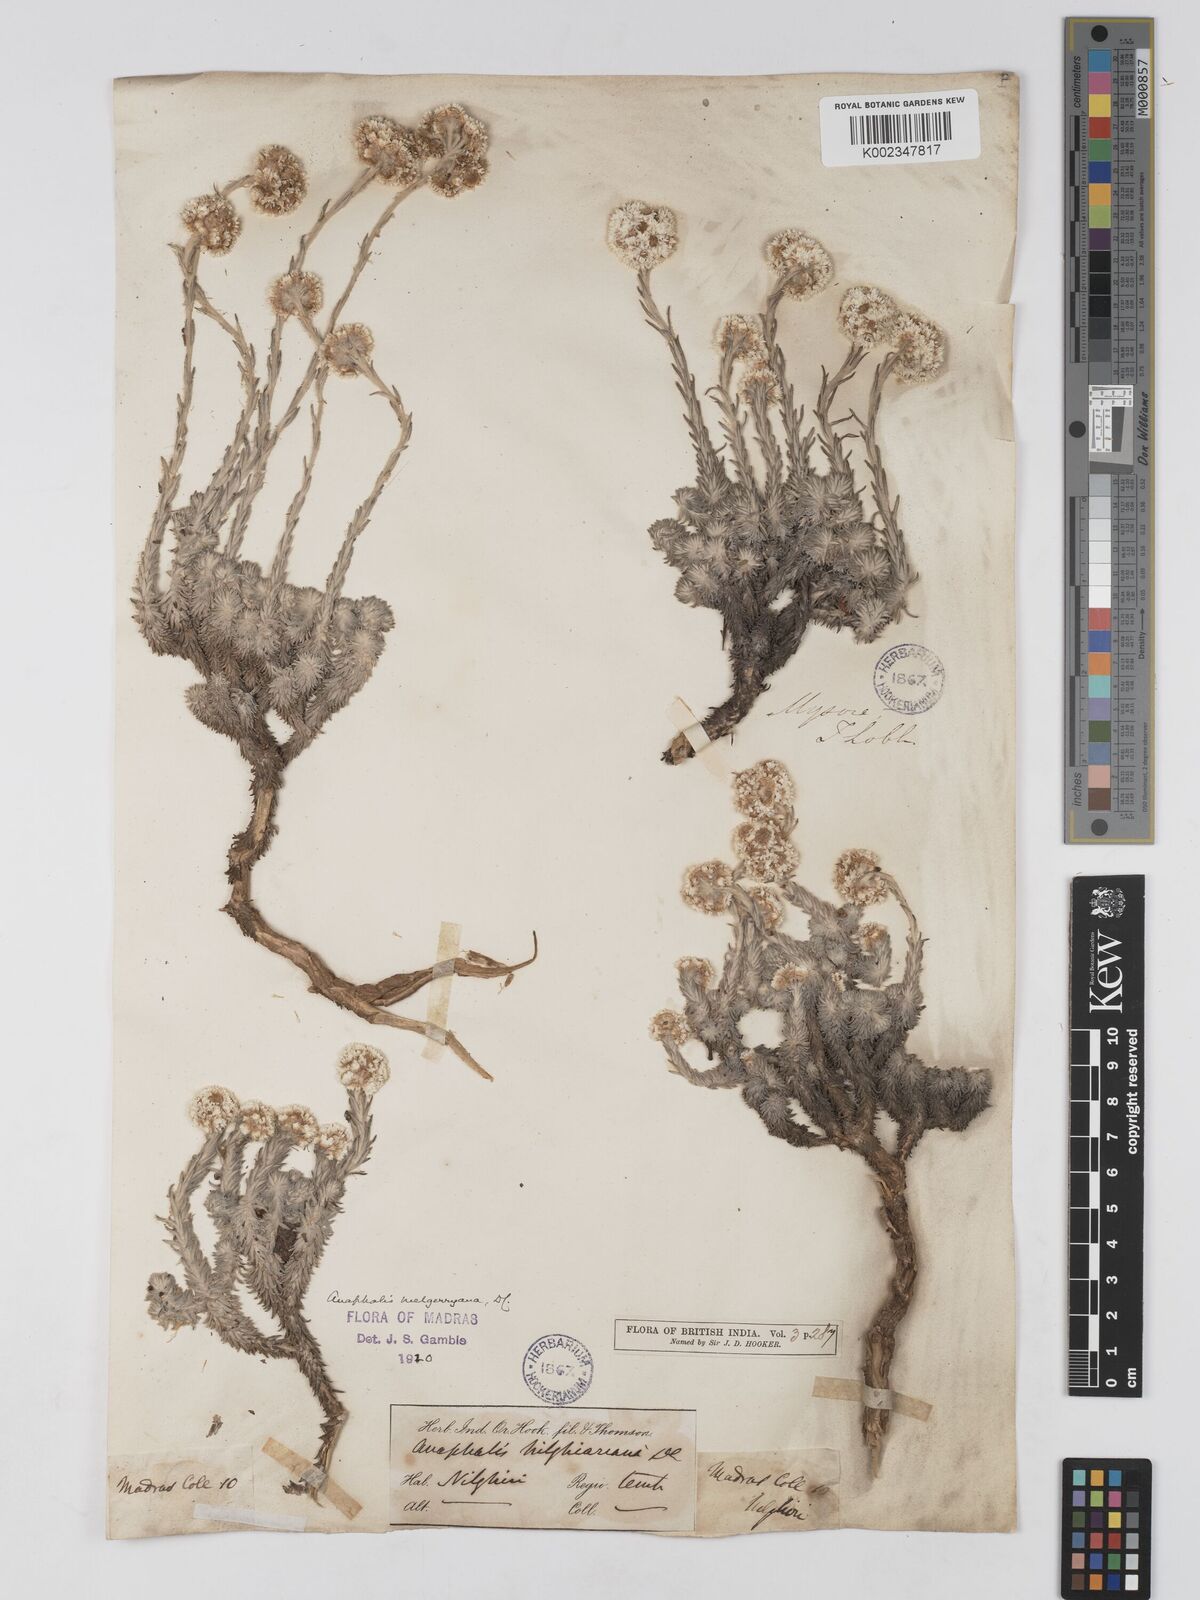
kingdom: Plantae
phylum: Tracheophyta
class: Magnoliopsida
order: Asterales
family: Asteraceae
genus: Anaphalis
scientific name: Anaphalis neelgerryana
